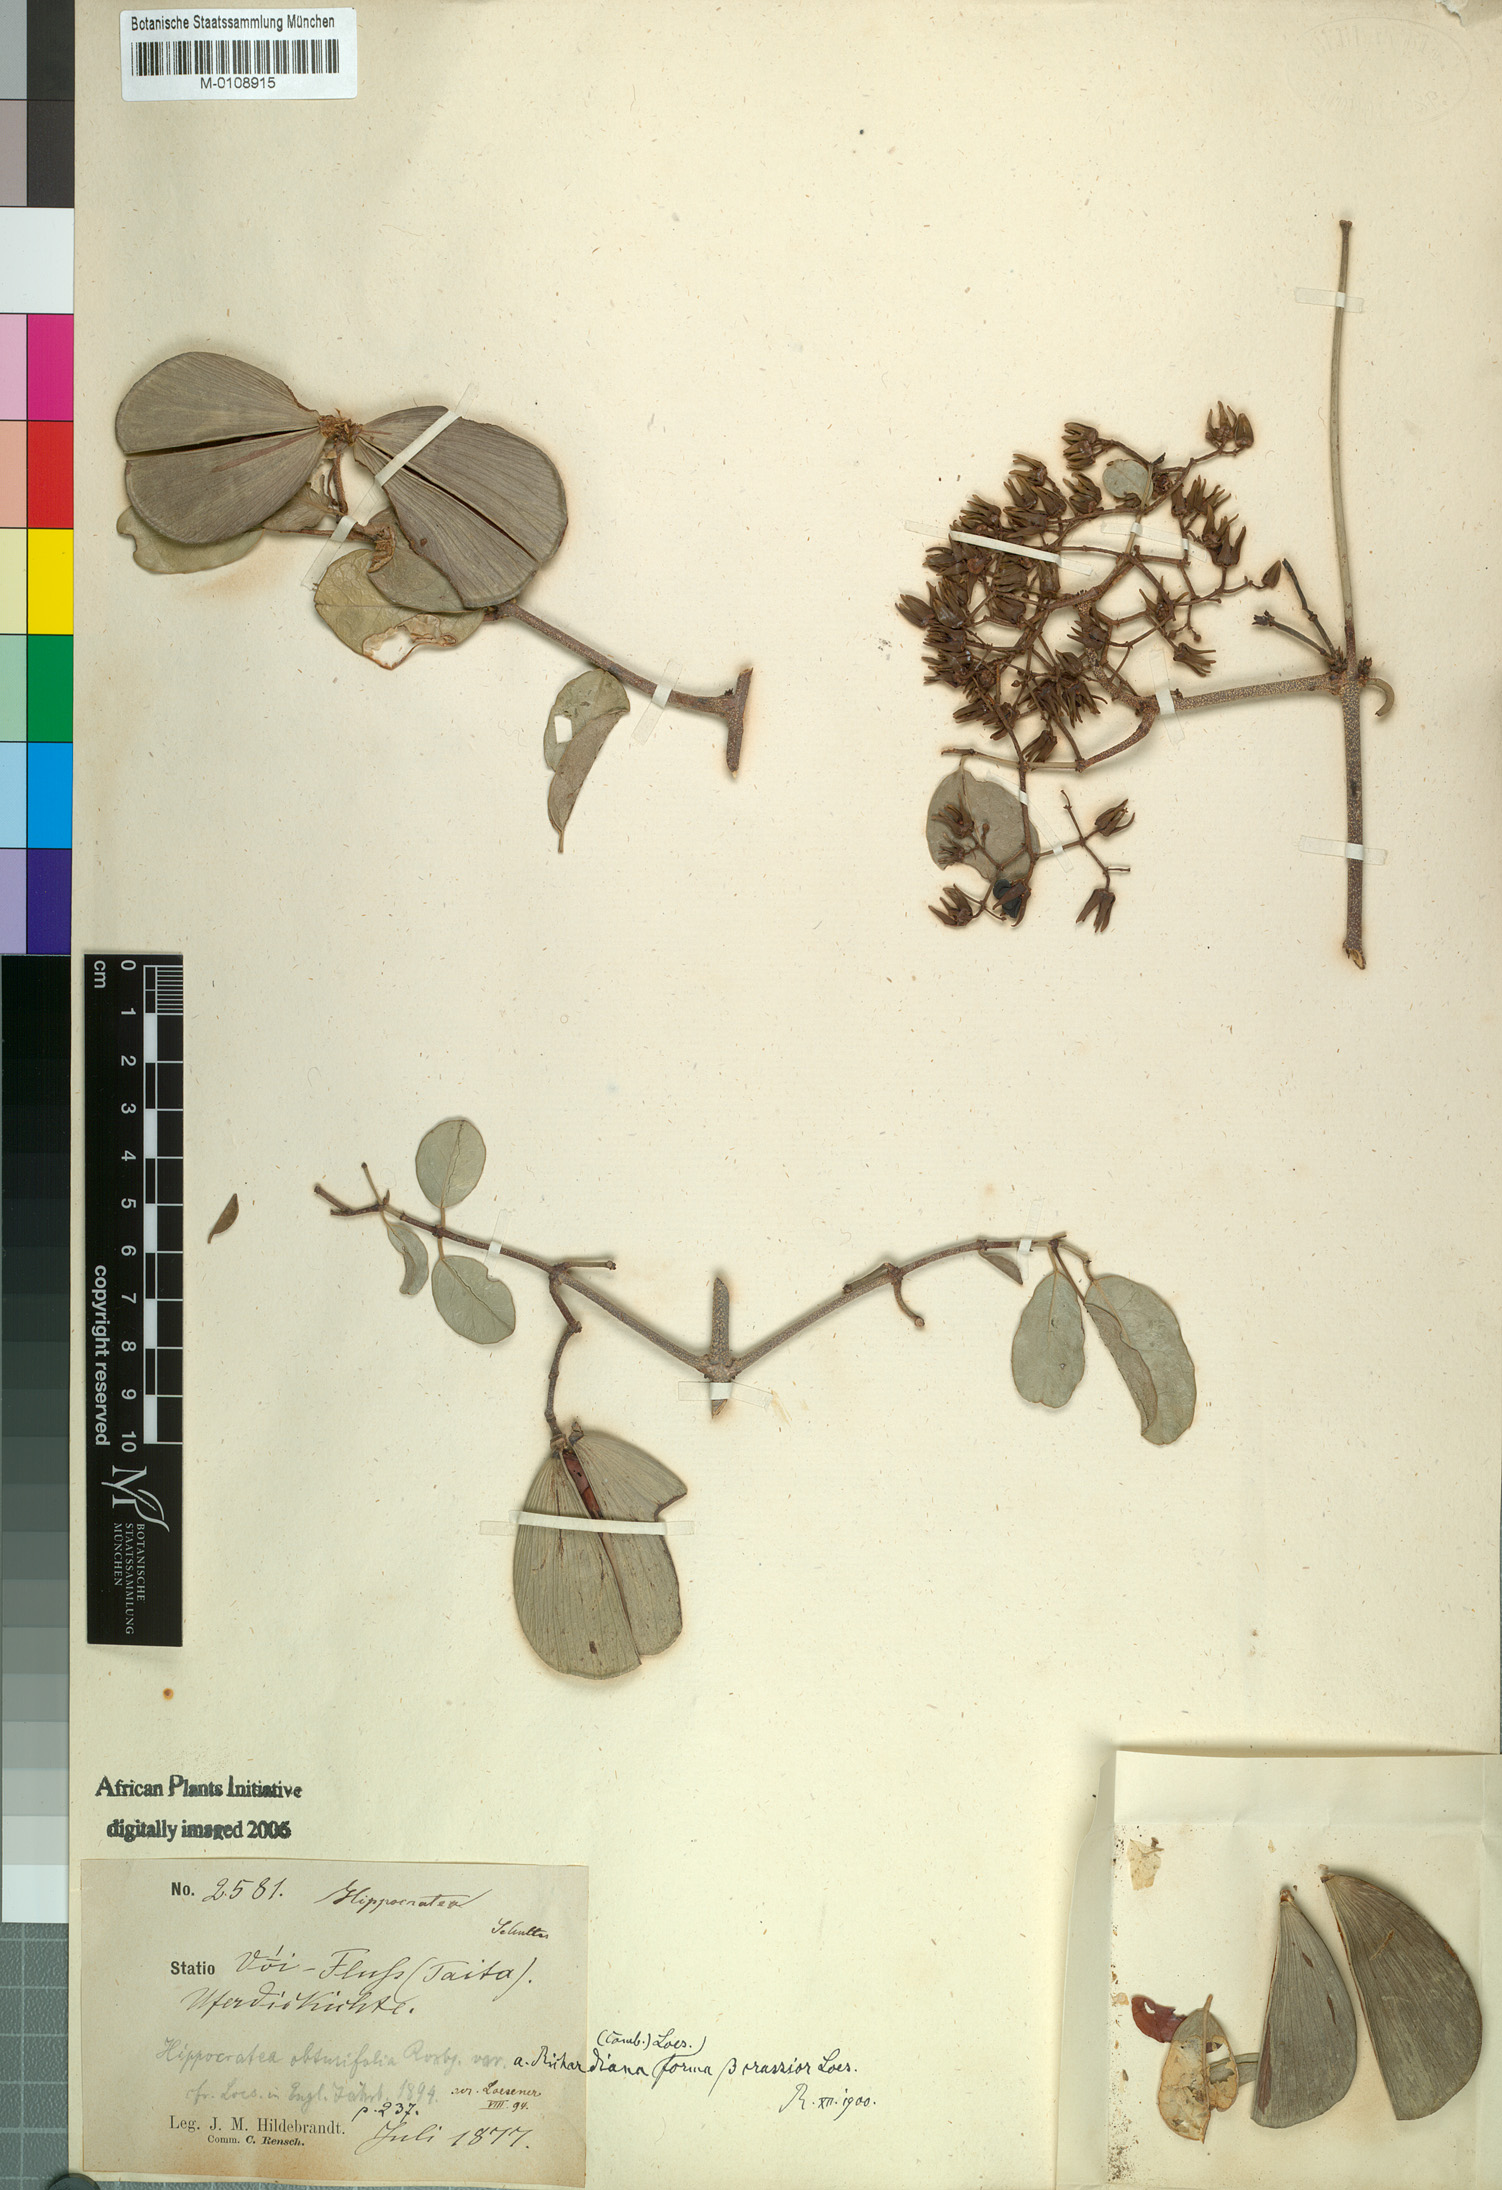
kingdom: Plantae
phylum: Tracheophyta
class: Magnoliopsida
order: Celastrales
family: Celastraceae
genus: Loeseneriella
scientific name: Loeseneriella africana
